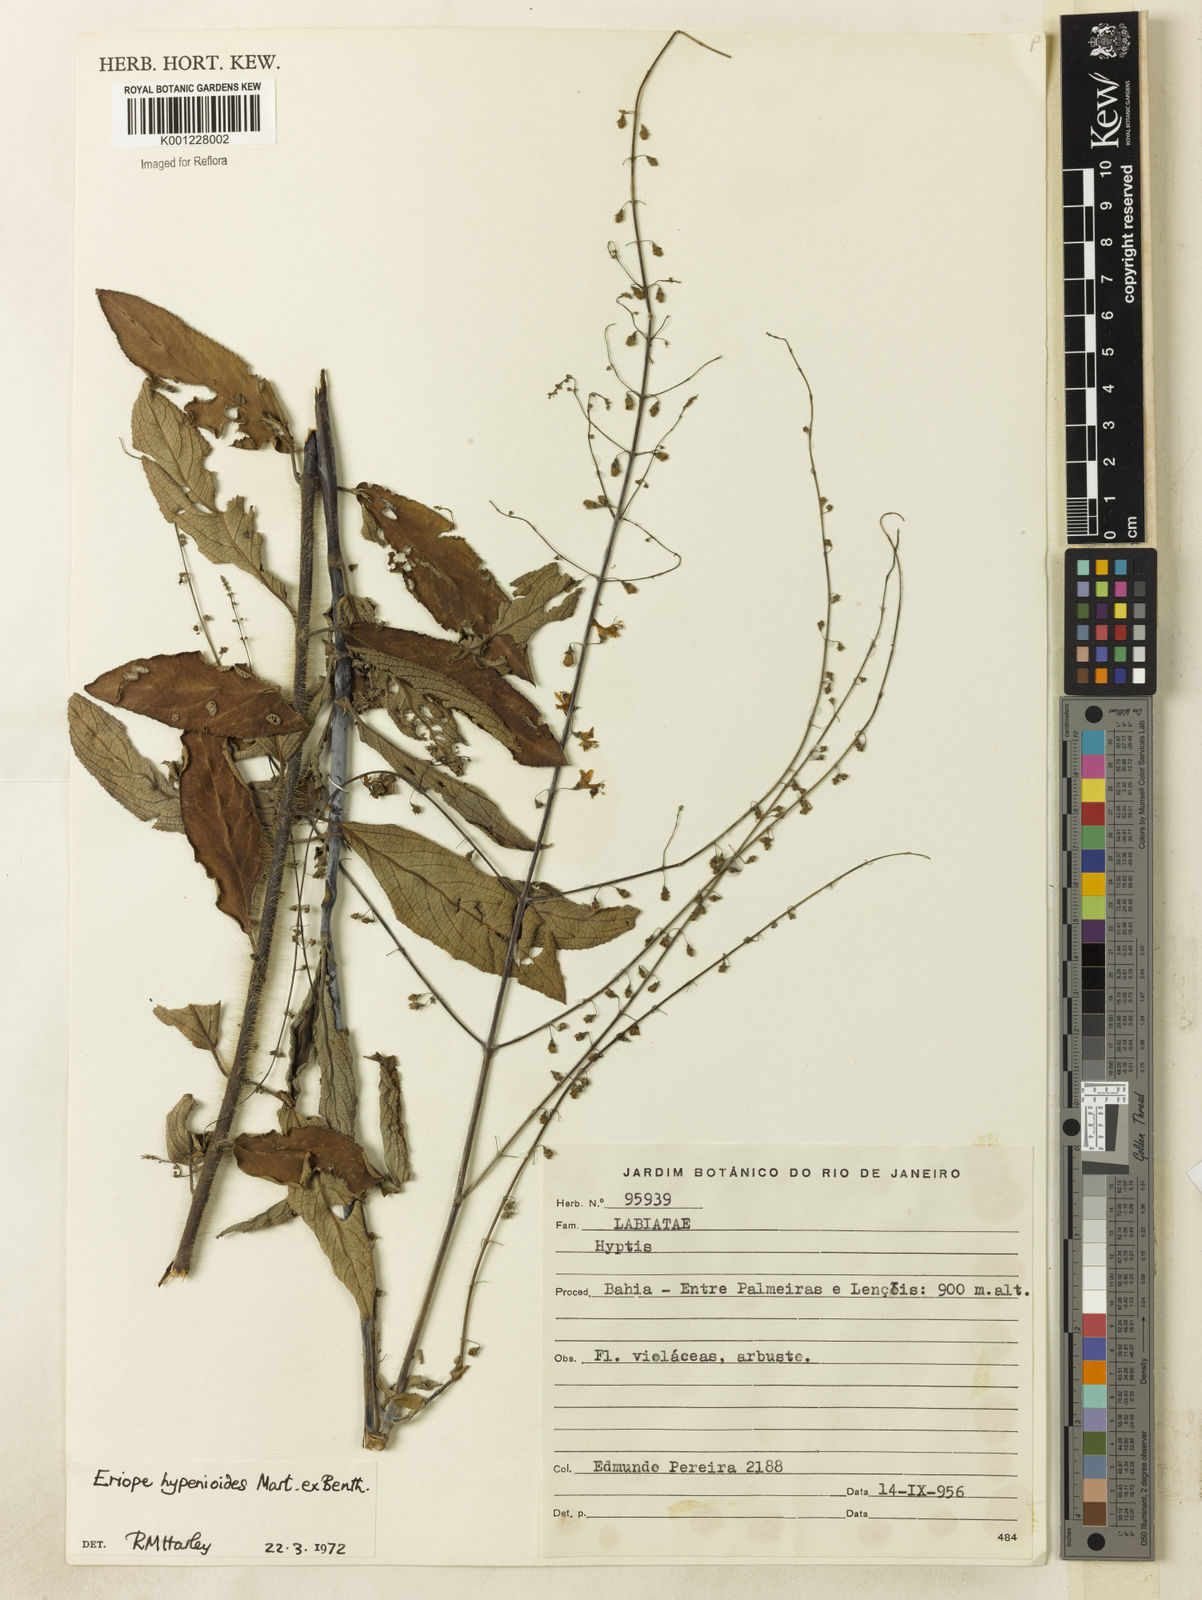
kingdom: Plantae
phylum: Tracheophyta
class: Magnoliopsida
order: Lamiales
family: Lamiaceae
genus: Eriope
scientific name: Eriope hypenioides
